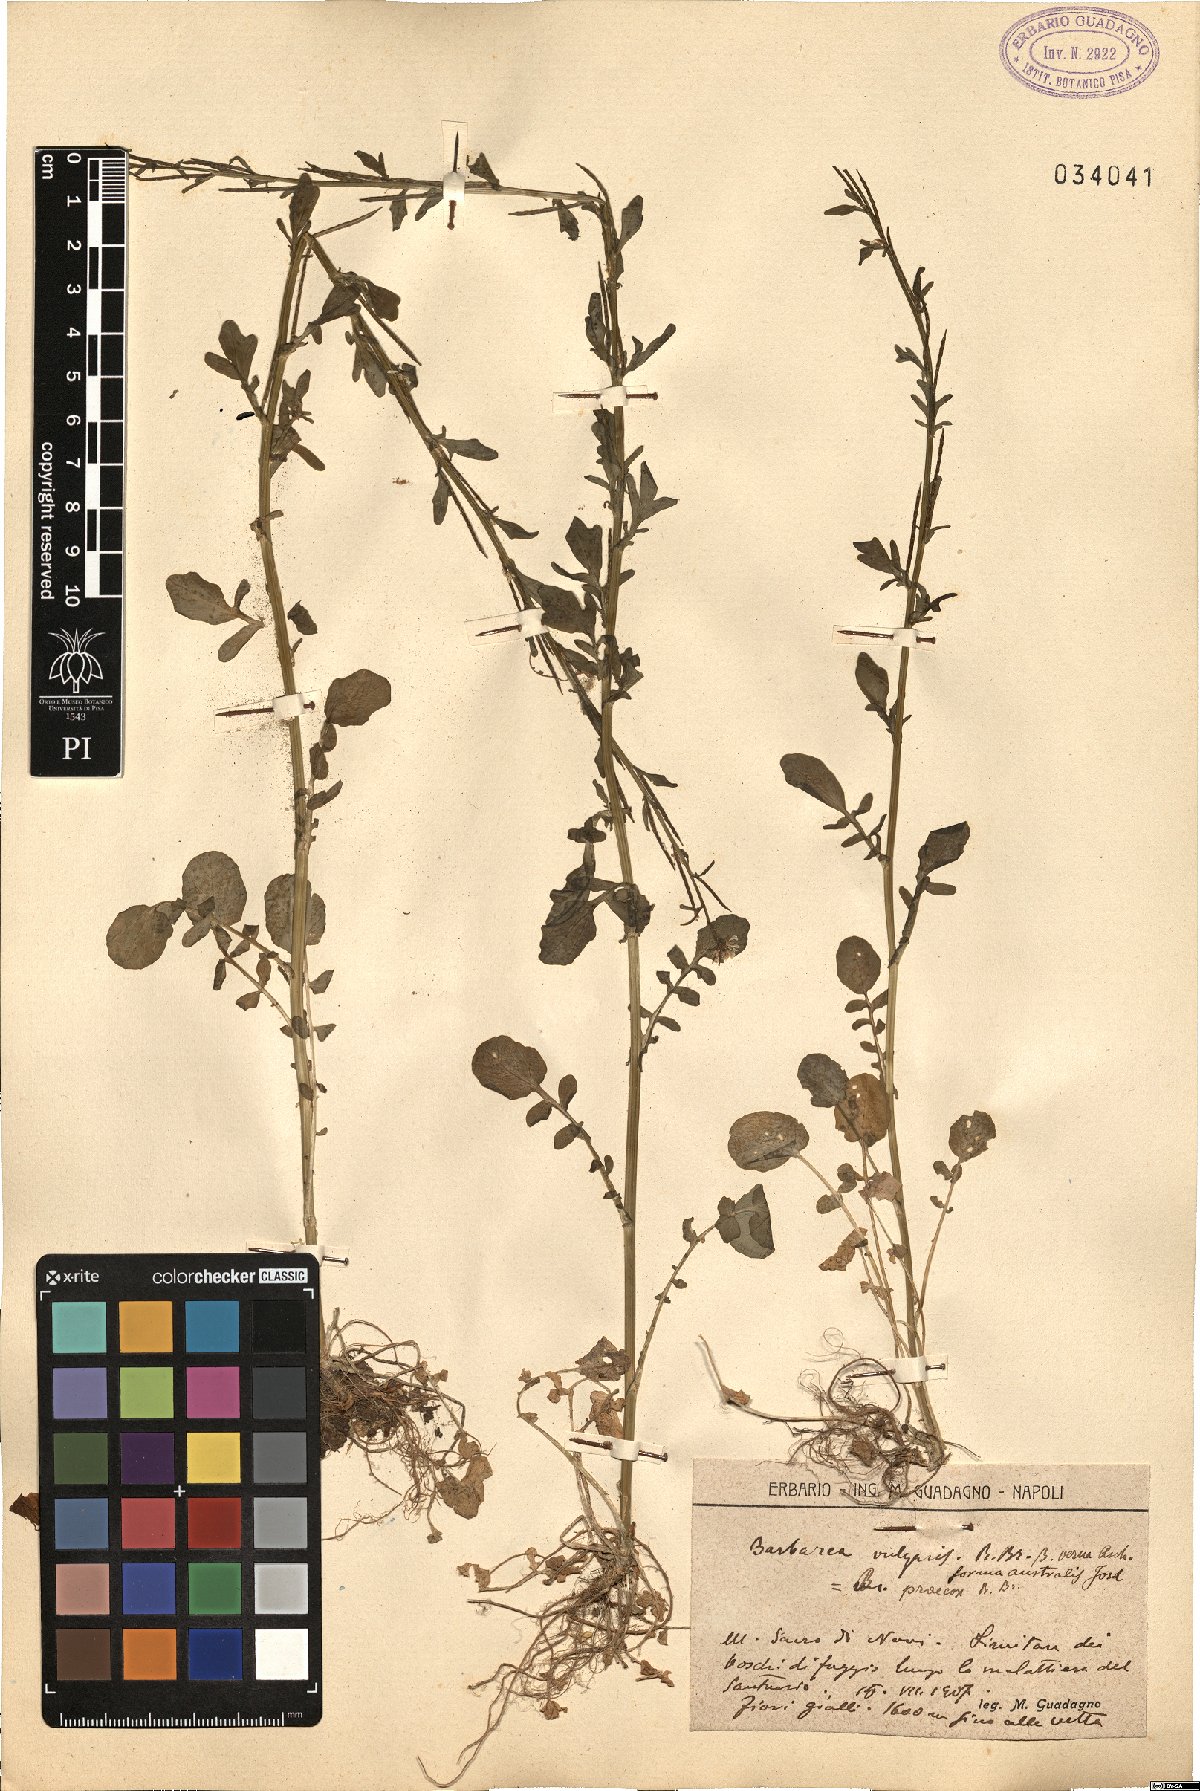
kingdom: Plantae
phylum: Tracheophyta
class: Magnoliopsida
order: Brassicales
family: Brassicaceae
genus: Barbarea
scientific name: Barbarea vulgaris
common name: Cressy-greens
